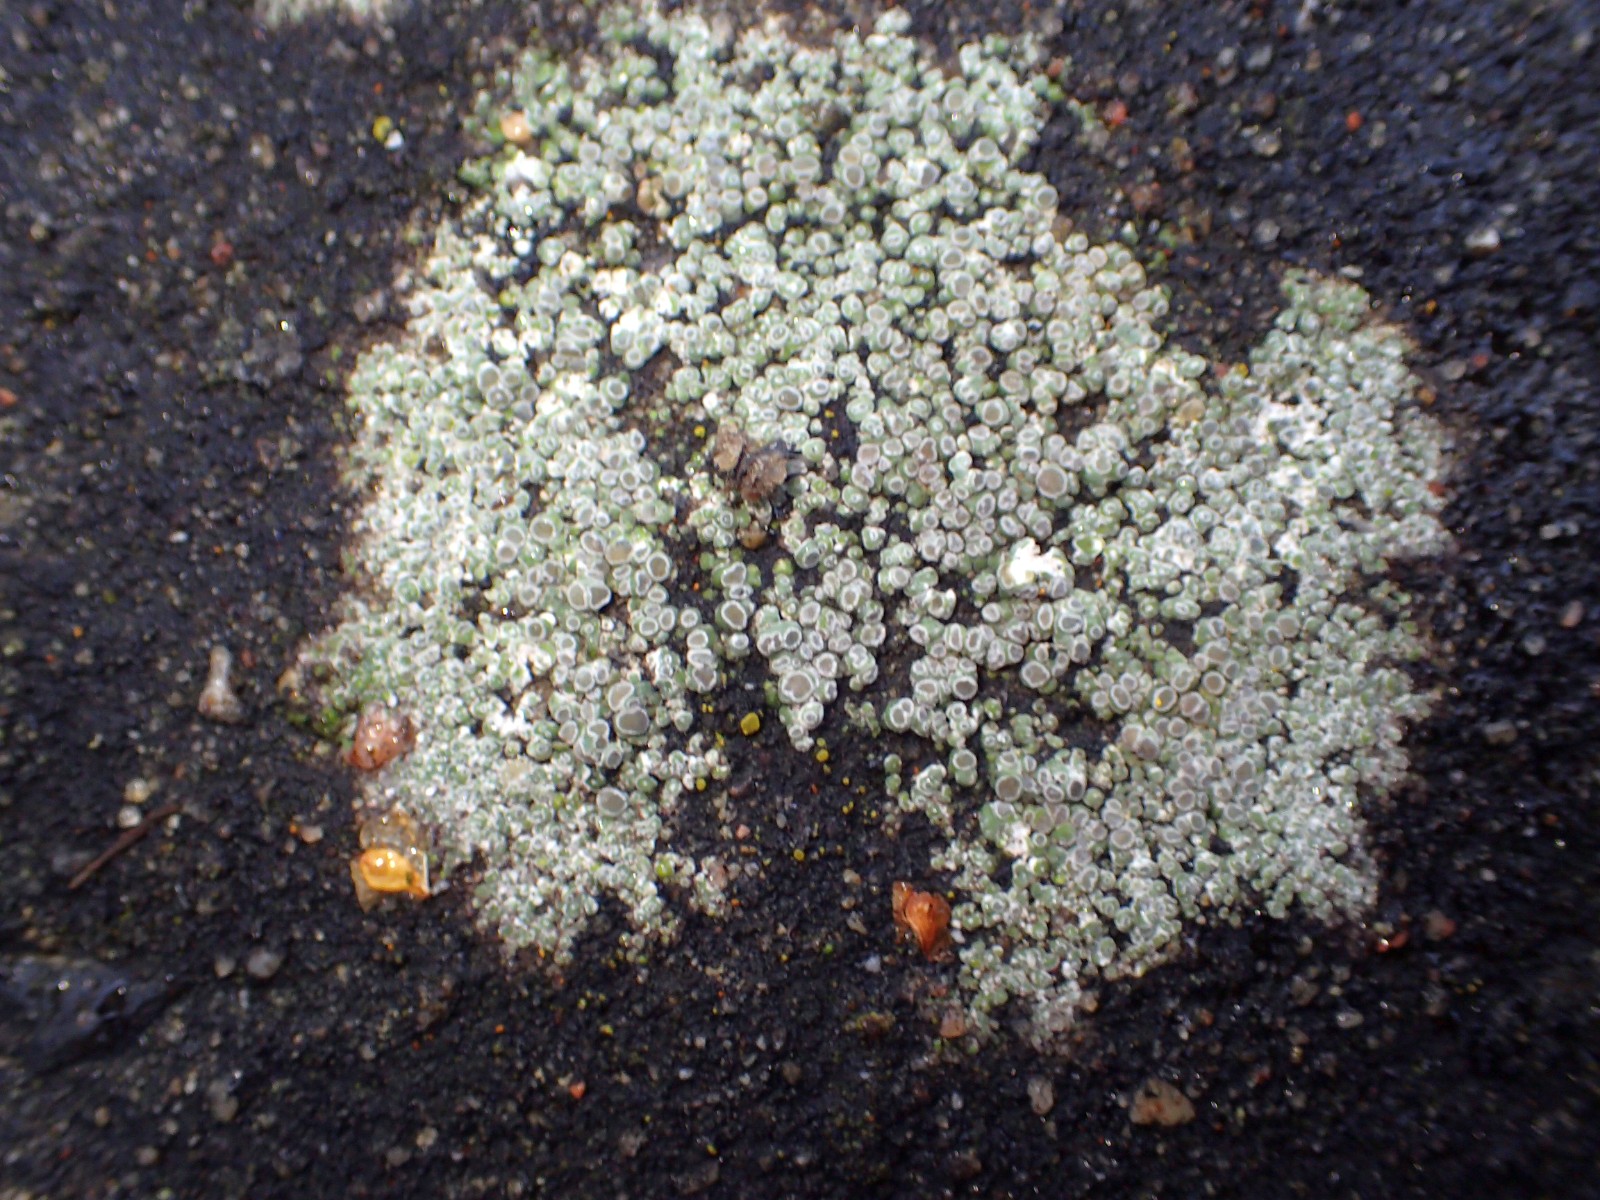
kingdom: Fungi
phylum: Ascomycota
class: Lecanoromycetes
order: Pertusariales
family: Megasporaceae
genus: Circinaria
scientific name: Circinaria contorta
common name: indviklet hulskivelav
